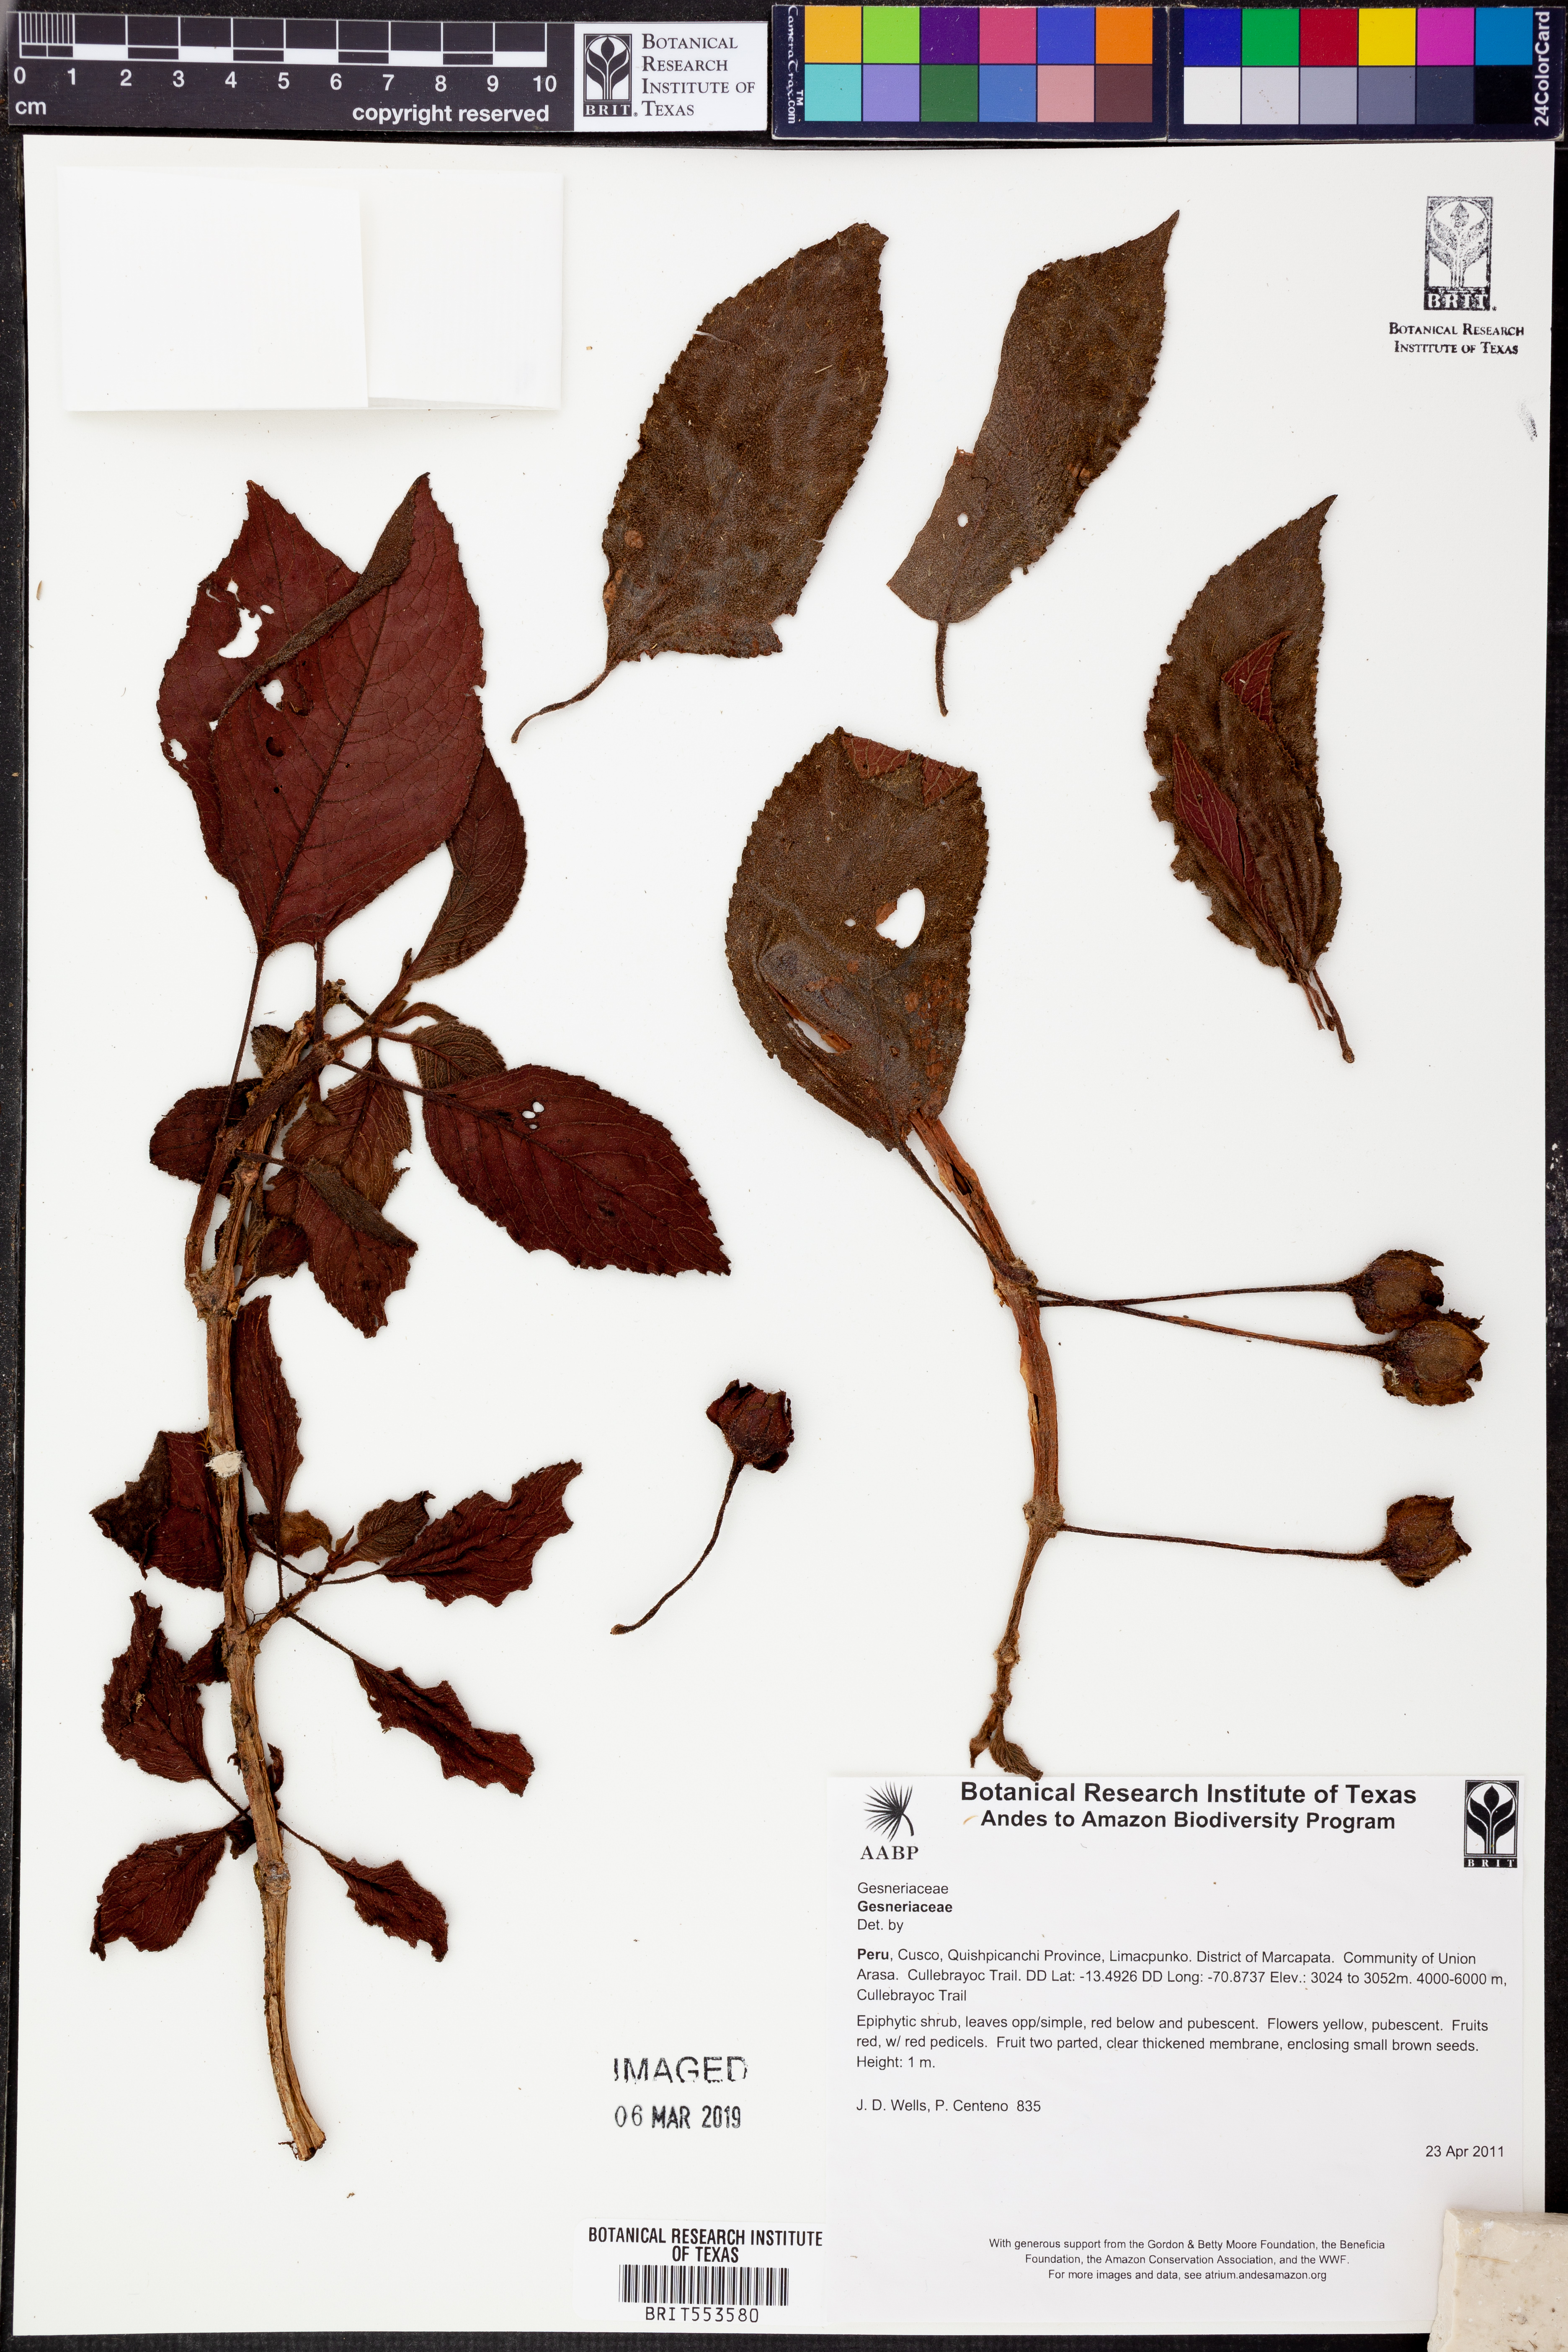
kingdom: Plantae
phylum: Tracheophyta
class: Magnoliopsida
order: Lamiales
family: Gesneriaceae
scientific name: Gesneriaceae
